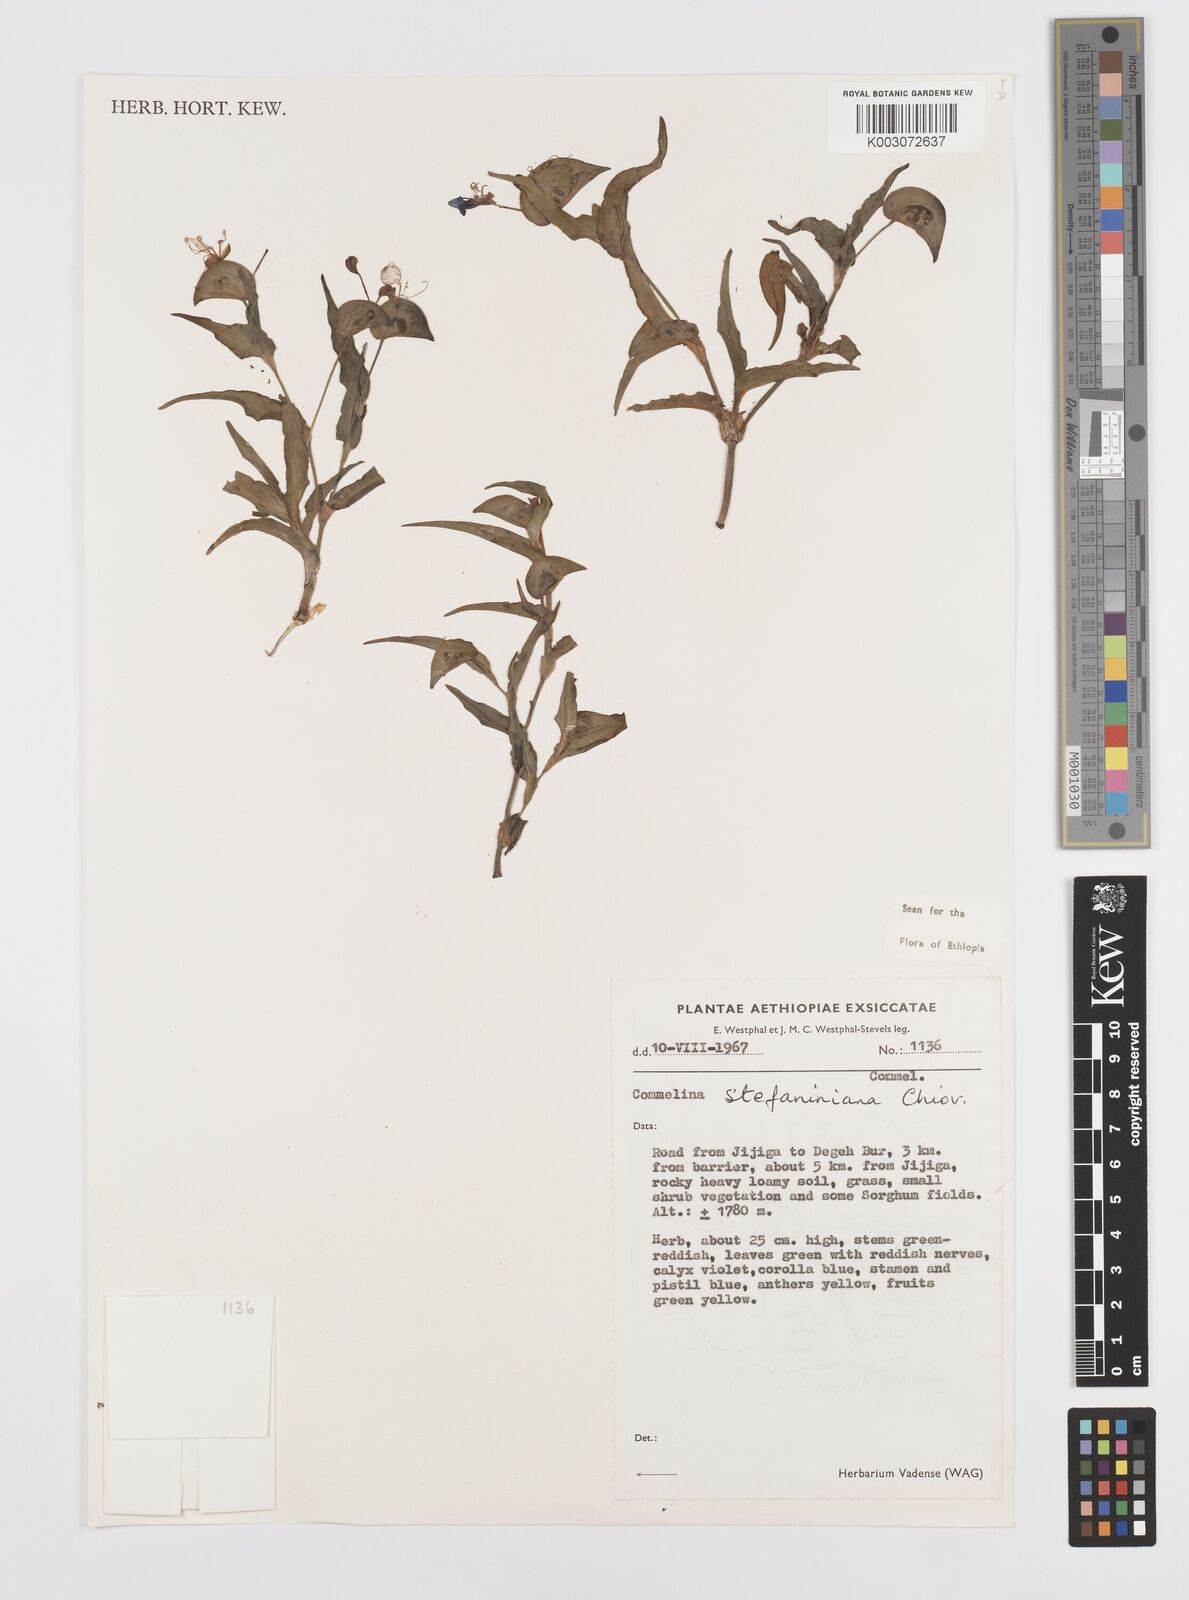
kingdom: Plantae
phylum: Tracheophyta
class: Liliopsida
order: Commelinales
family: Commelinaceae
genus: Commelina
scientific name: Commelina stefaniniana
